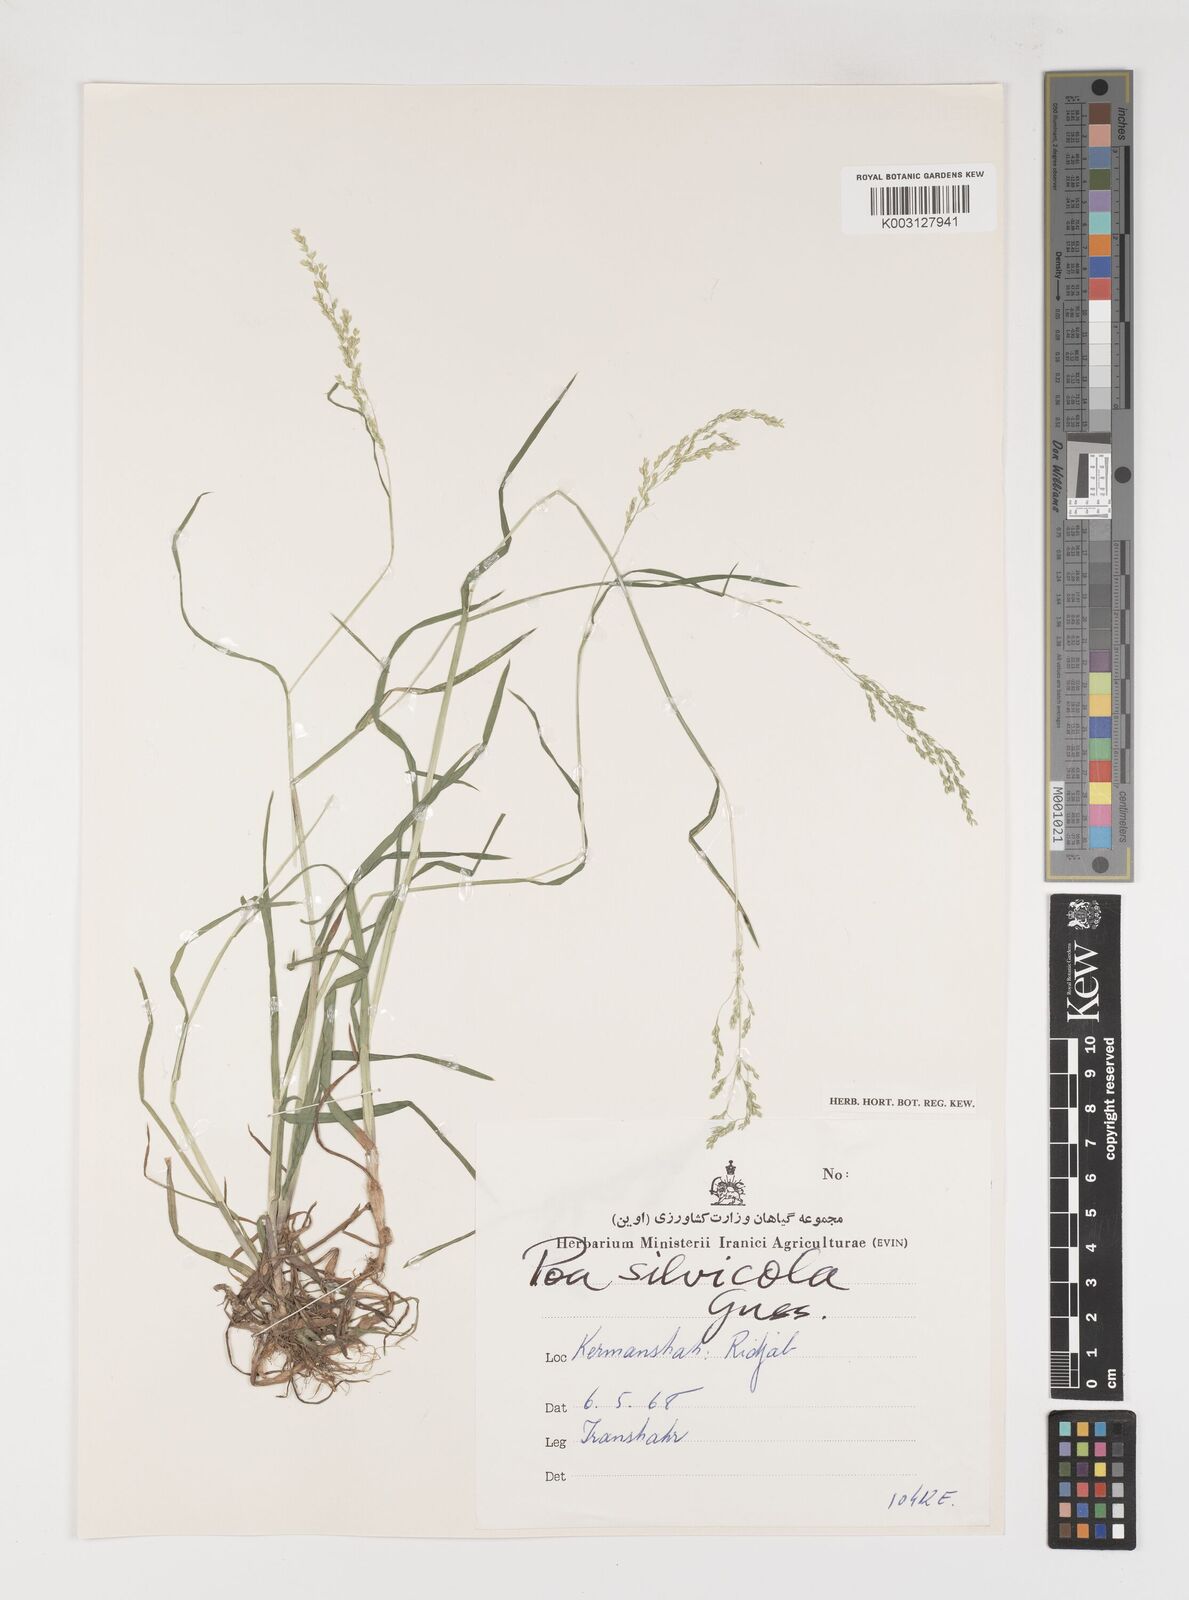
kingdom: Plantae
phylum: Tracheophyta
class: Liliopsida
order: Poales
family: Poaceae
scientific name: Poaceae
